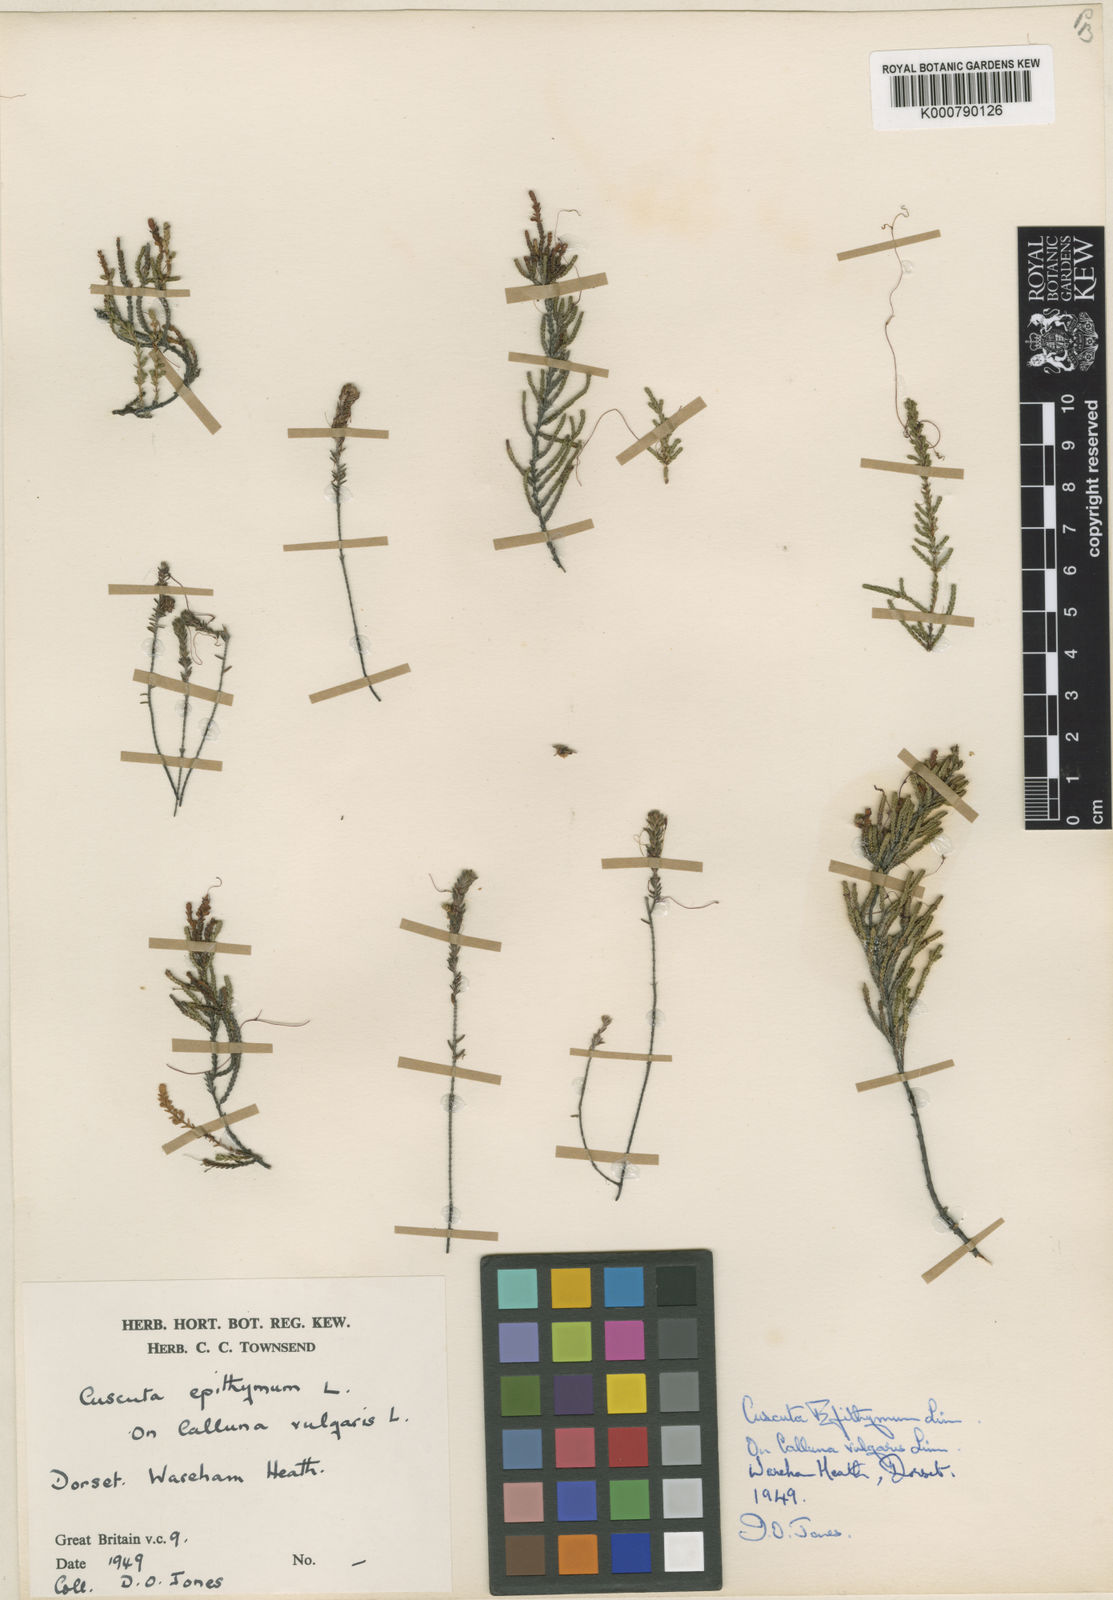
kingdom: Plantae
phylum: Tracheophyta
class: Magnoliopsida
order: Solanales
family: Convolvulaceae
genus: Cuscuta
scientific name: Cuscuta epithymum
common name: Clover dodder
